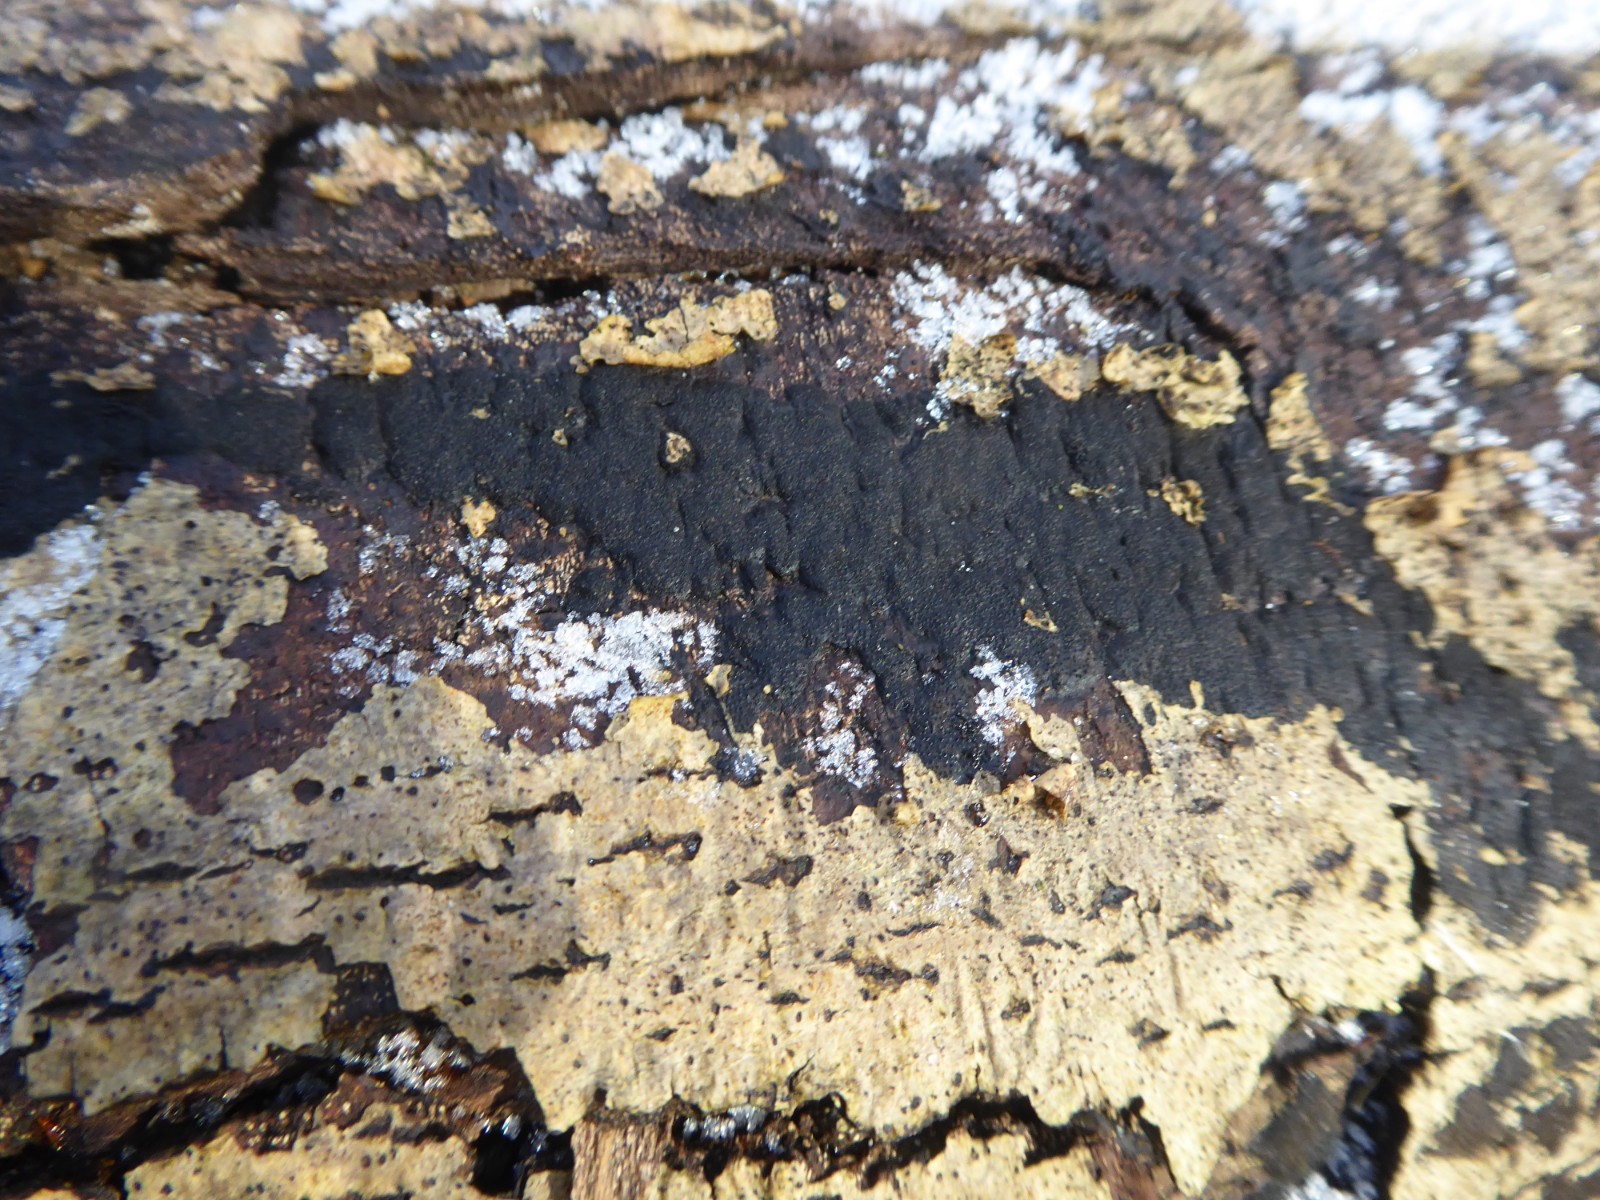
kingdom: Fungi
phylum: Ascomycota
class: Sordariomycetes
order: Xylariales
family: Diatrypaceae
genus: Eutypa
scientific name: Eutypa
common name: kulskorpe
